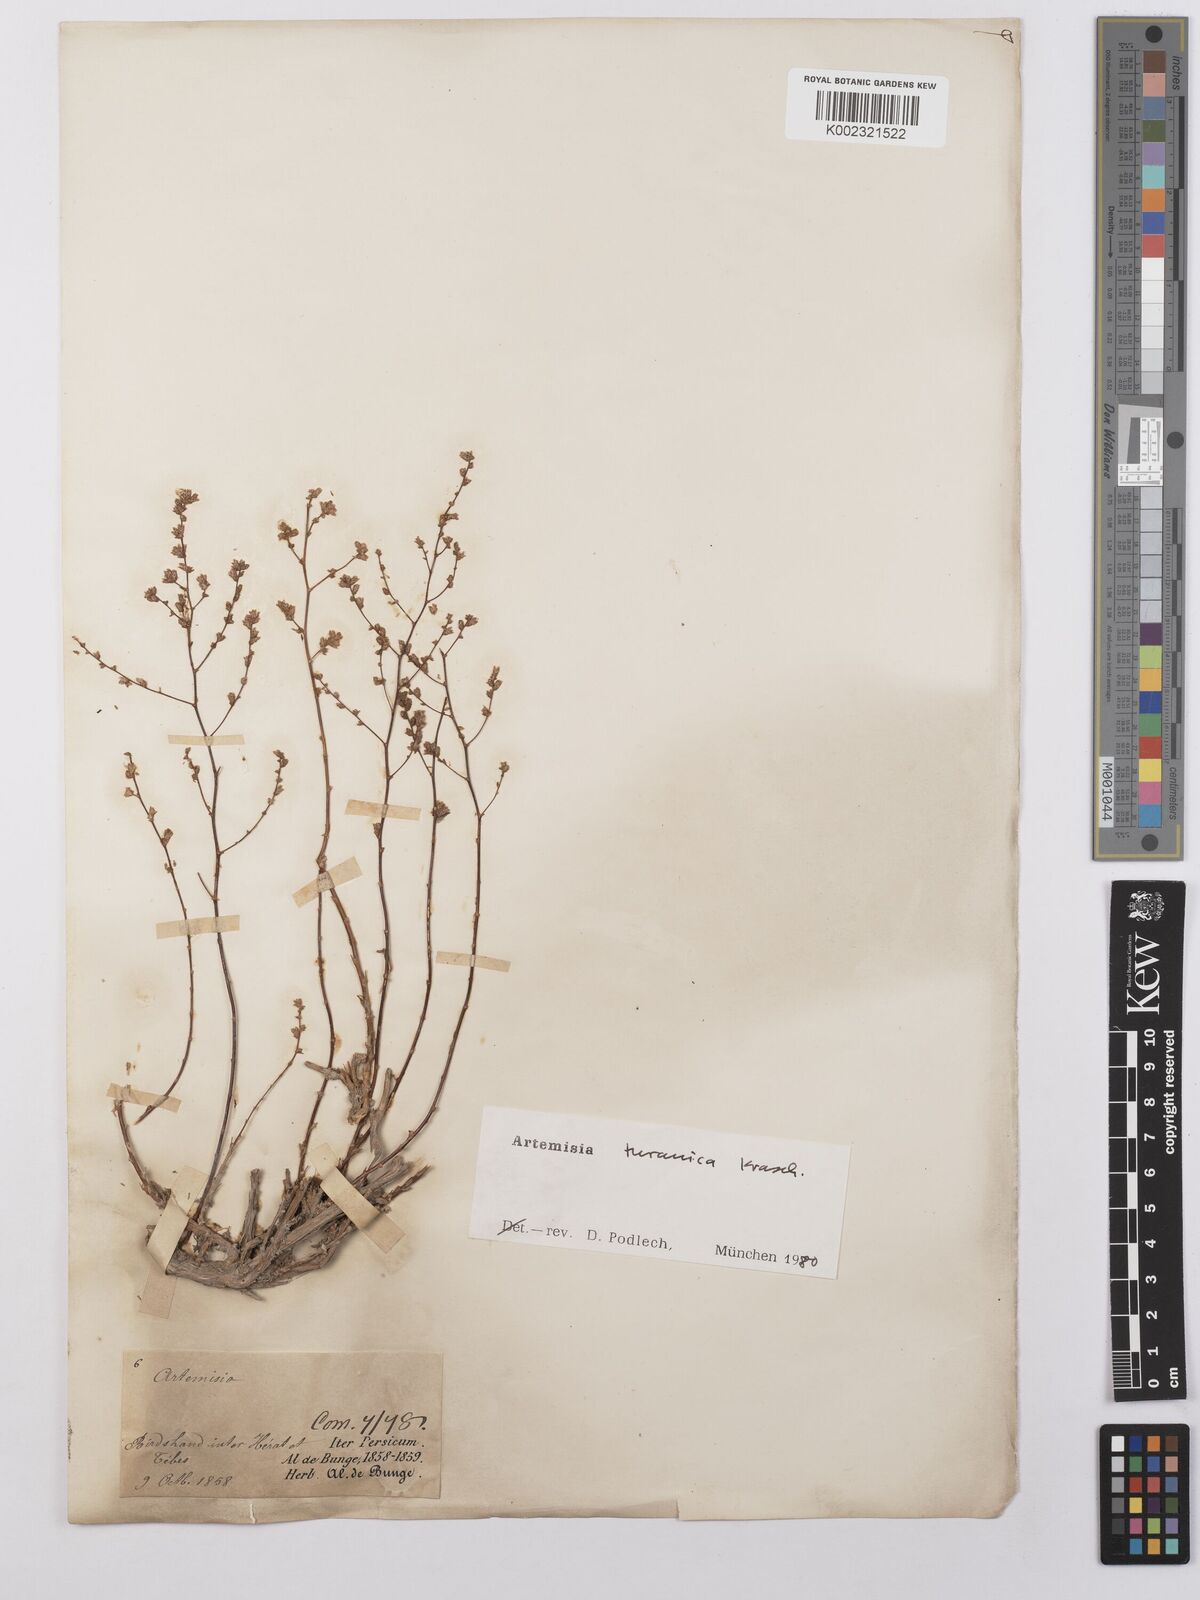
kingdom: Plantae
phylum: Tracheophyta
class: Magnoliopsida
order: Asterales
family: Asteraceae
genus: Artemisia
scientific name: Artemisia turanica
